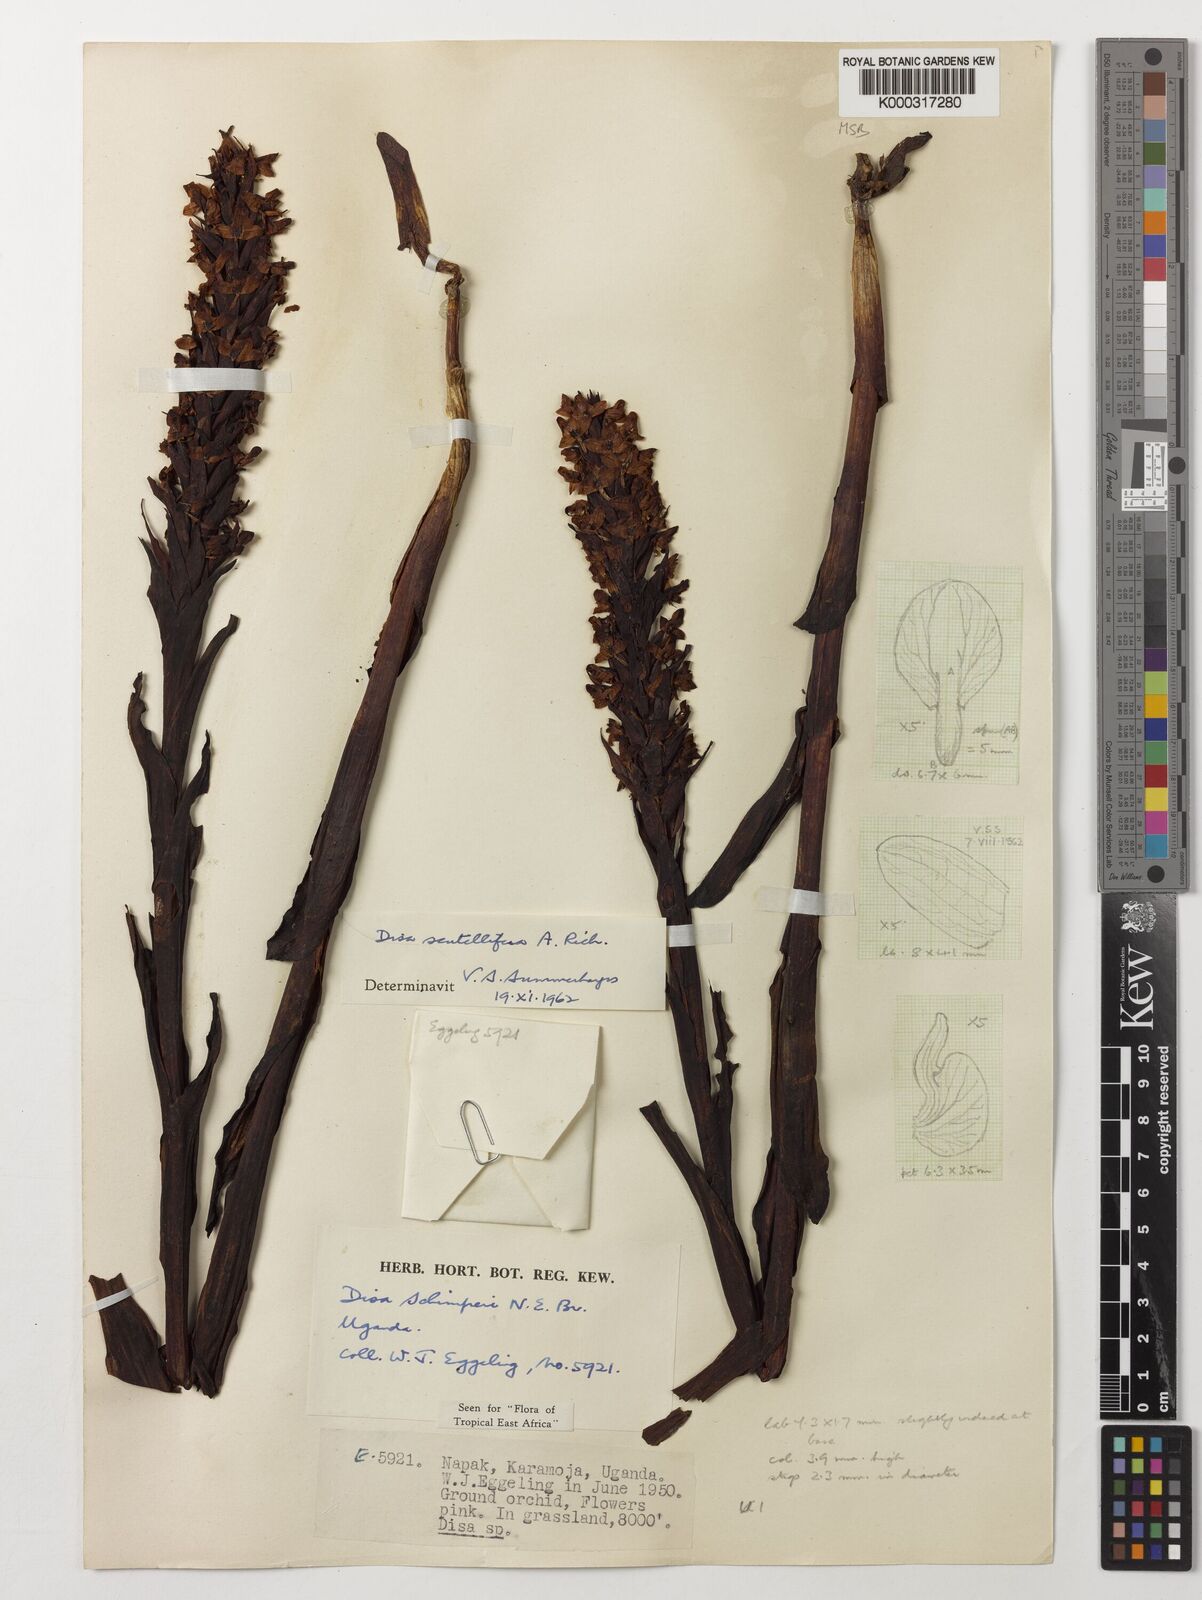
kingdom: Plantae
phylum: Tracheophyta
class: Liliopsida
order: Asparagales
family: Orchidaceae
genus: Disa
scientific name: Disa scutellifera
